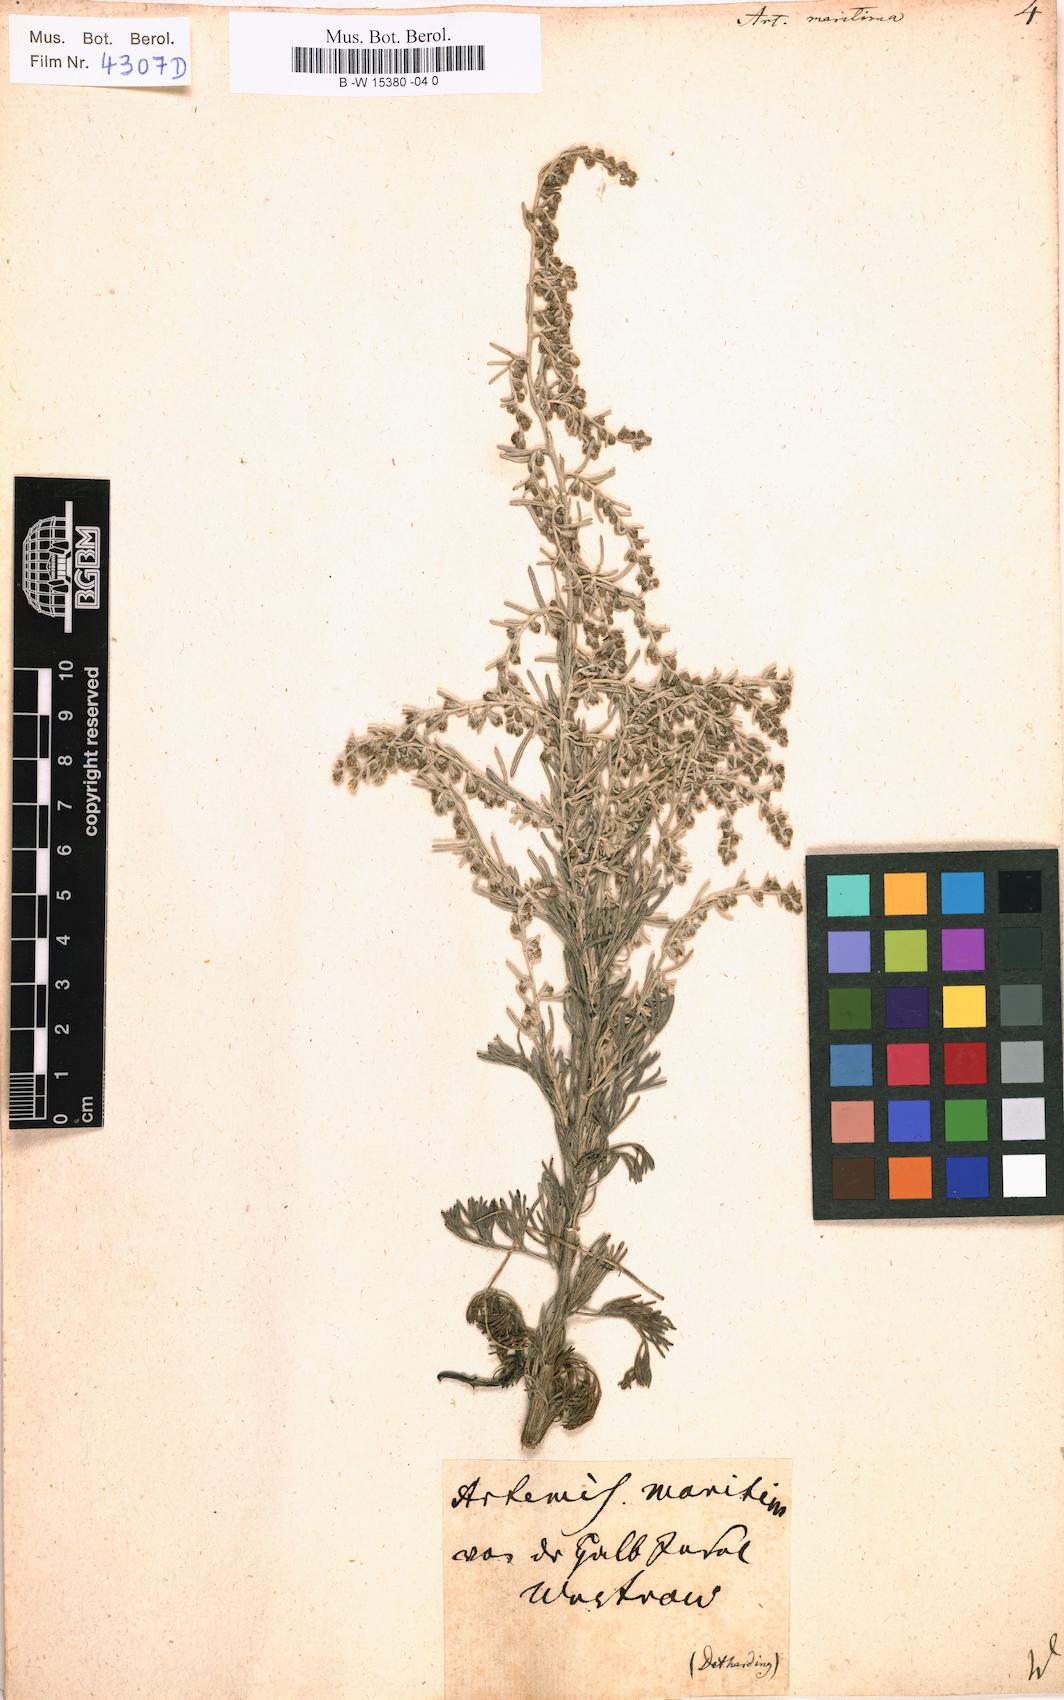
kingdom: Plantae
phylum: Tracheophyta
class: Magnoliopsida
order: Asterales
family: Asteraceae
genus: Artemisia
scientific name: Artemisia maritima
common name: Wormseed
